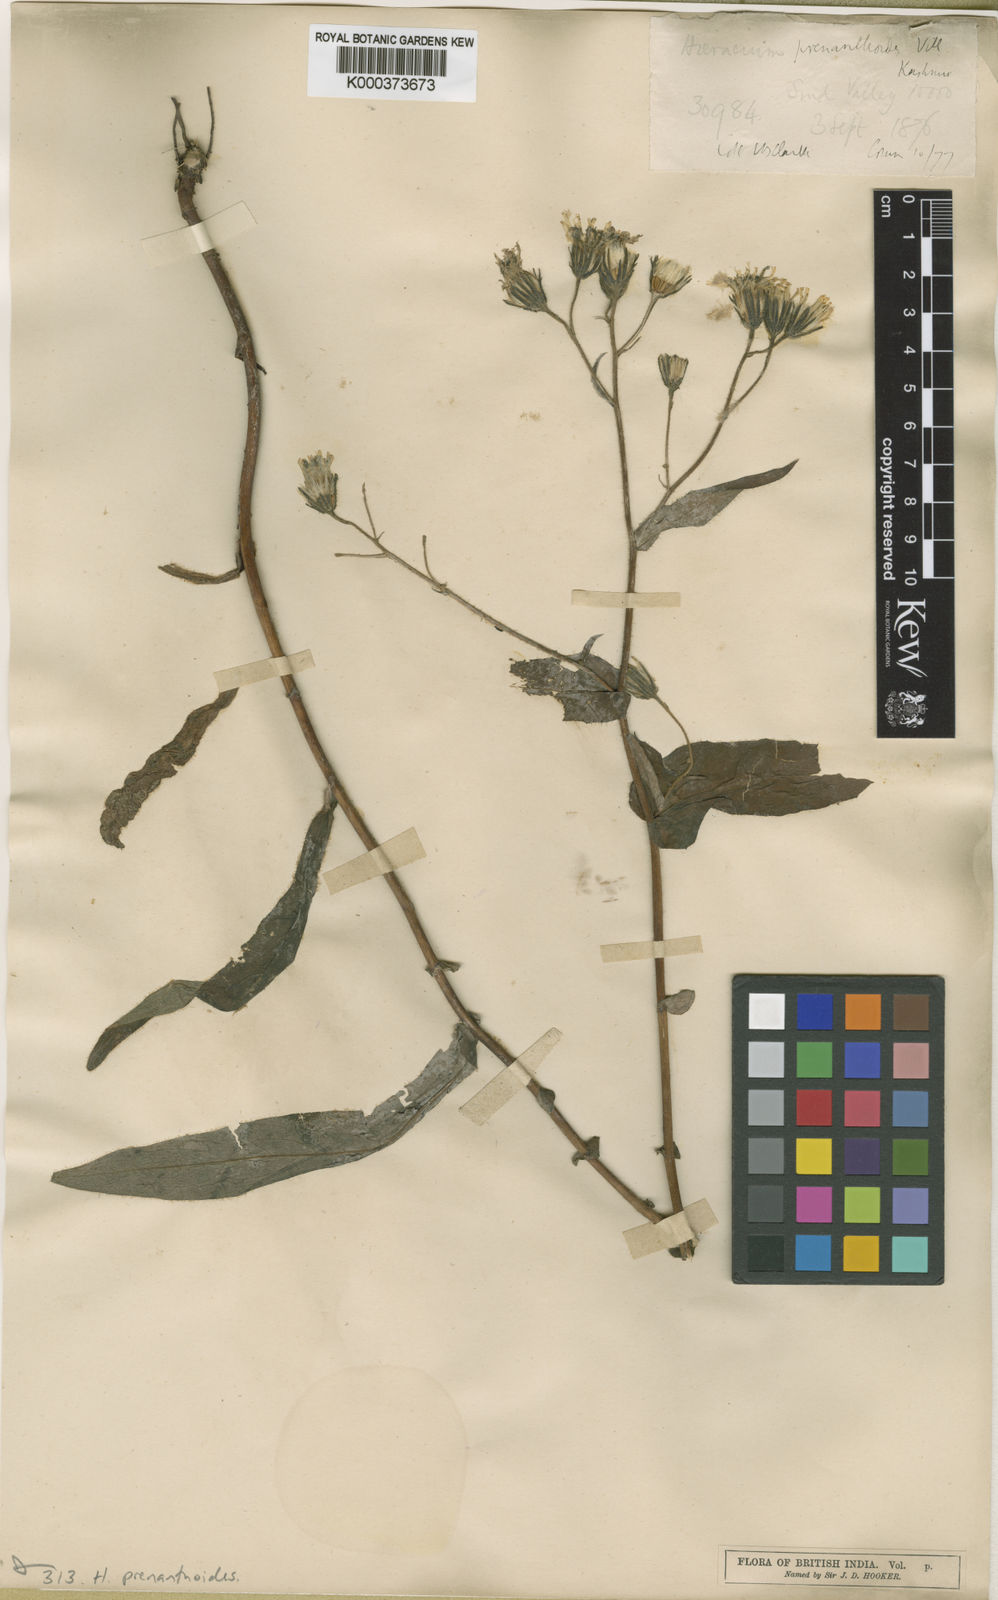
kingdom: Plantae
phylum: Tracheophyta
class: Magnoliopsida
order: Asterales
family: Asteraceae
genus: Hieracium
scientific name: Hieracium prenanthoides
